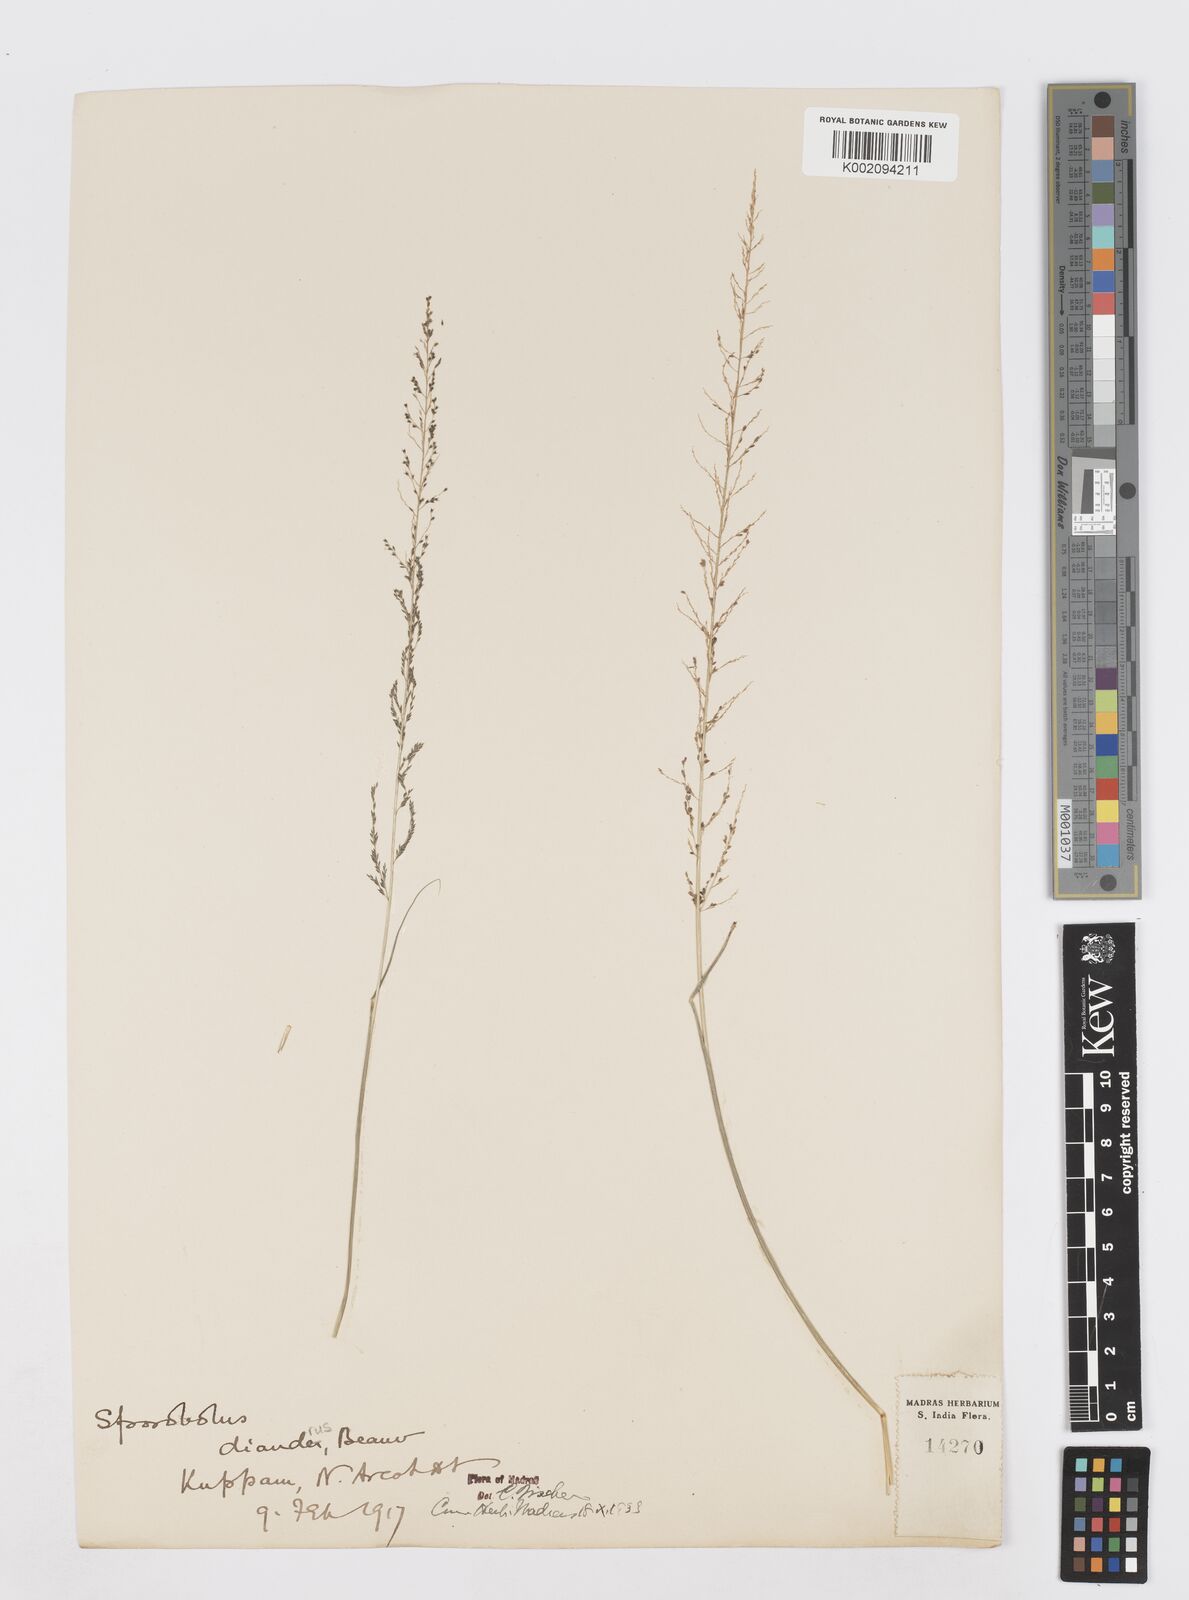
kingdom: Plantae
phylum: Tracheophyta
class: Liliopsida
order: Poales
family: Poaceae
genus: Sporobolus
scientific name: Sporobolus diandrus
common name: Tussock dropseed
